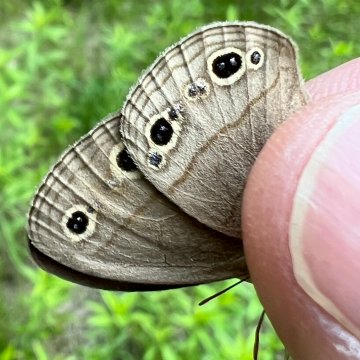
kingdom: Animalia
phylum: Arthropoda
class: Insecta
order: Lepidoptera
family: Nymphalidae
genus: Euptychia
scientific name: Euptychia cymela
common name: Little Wood Satyr
